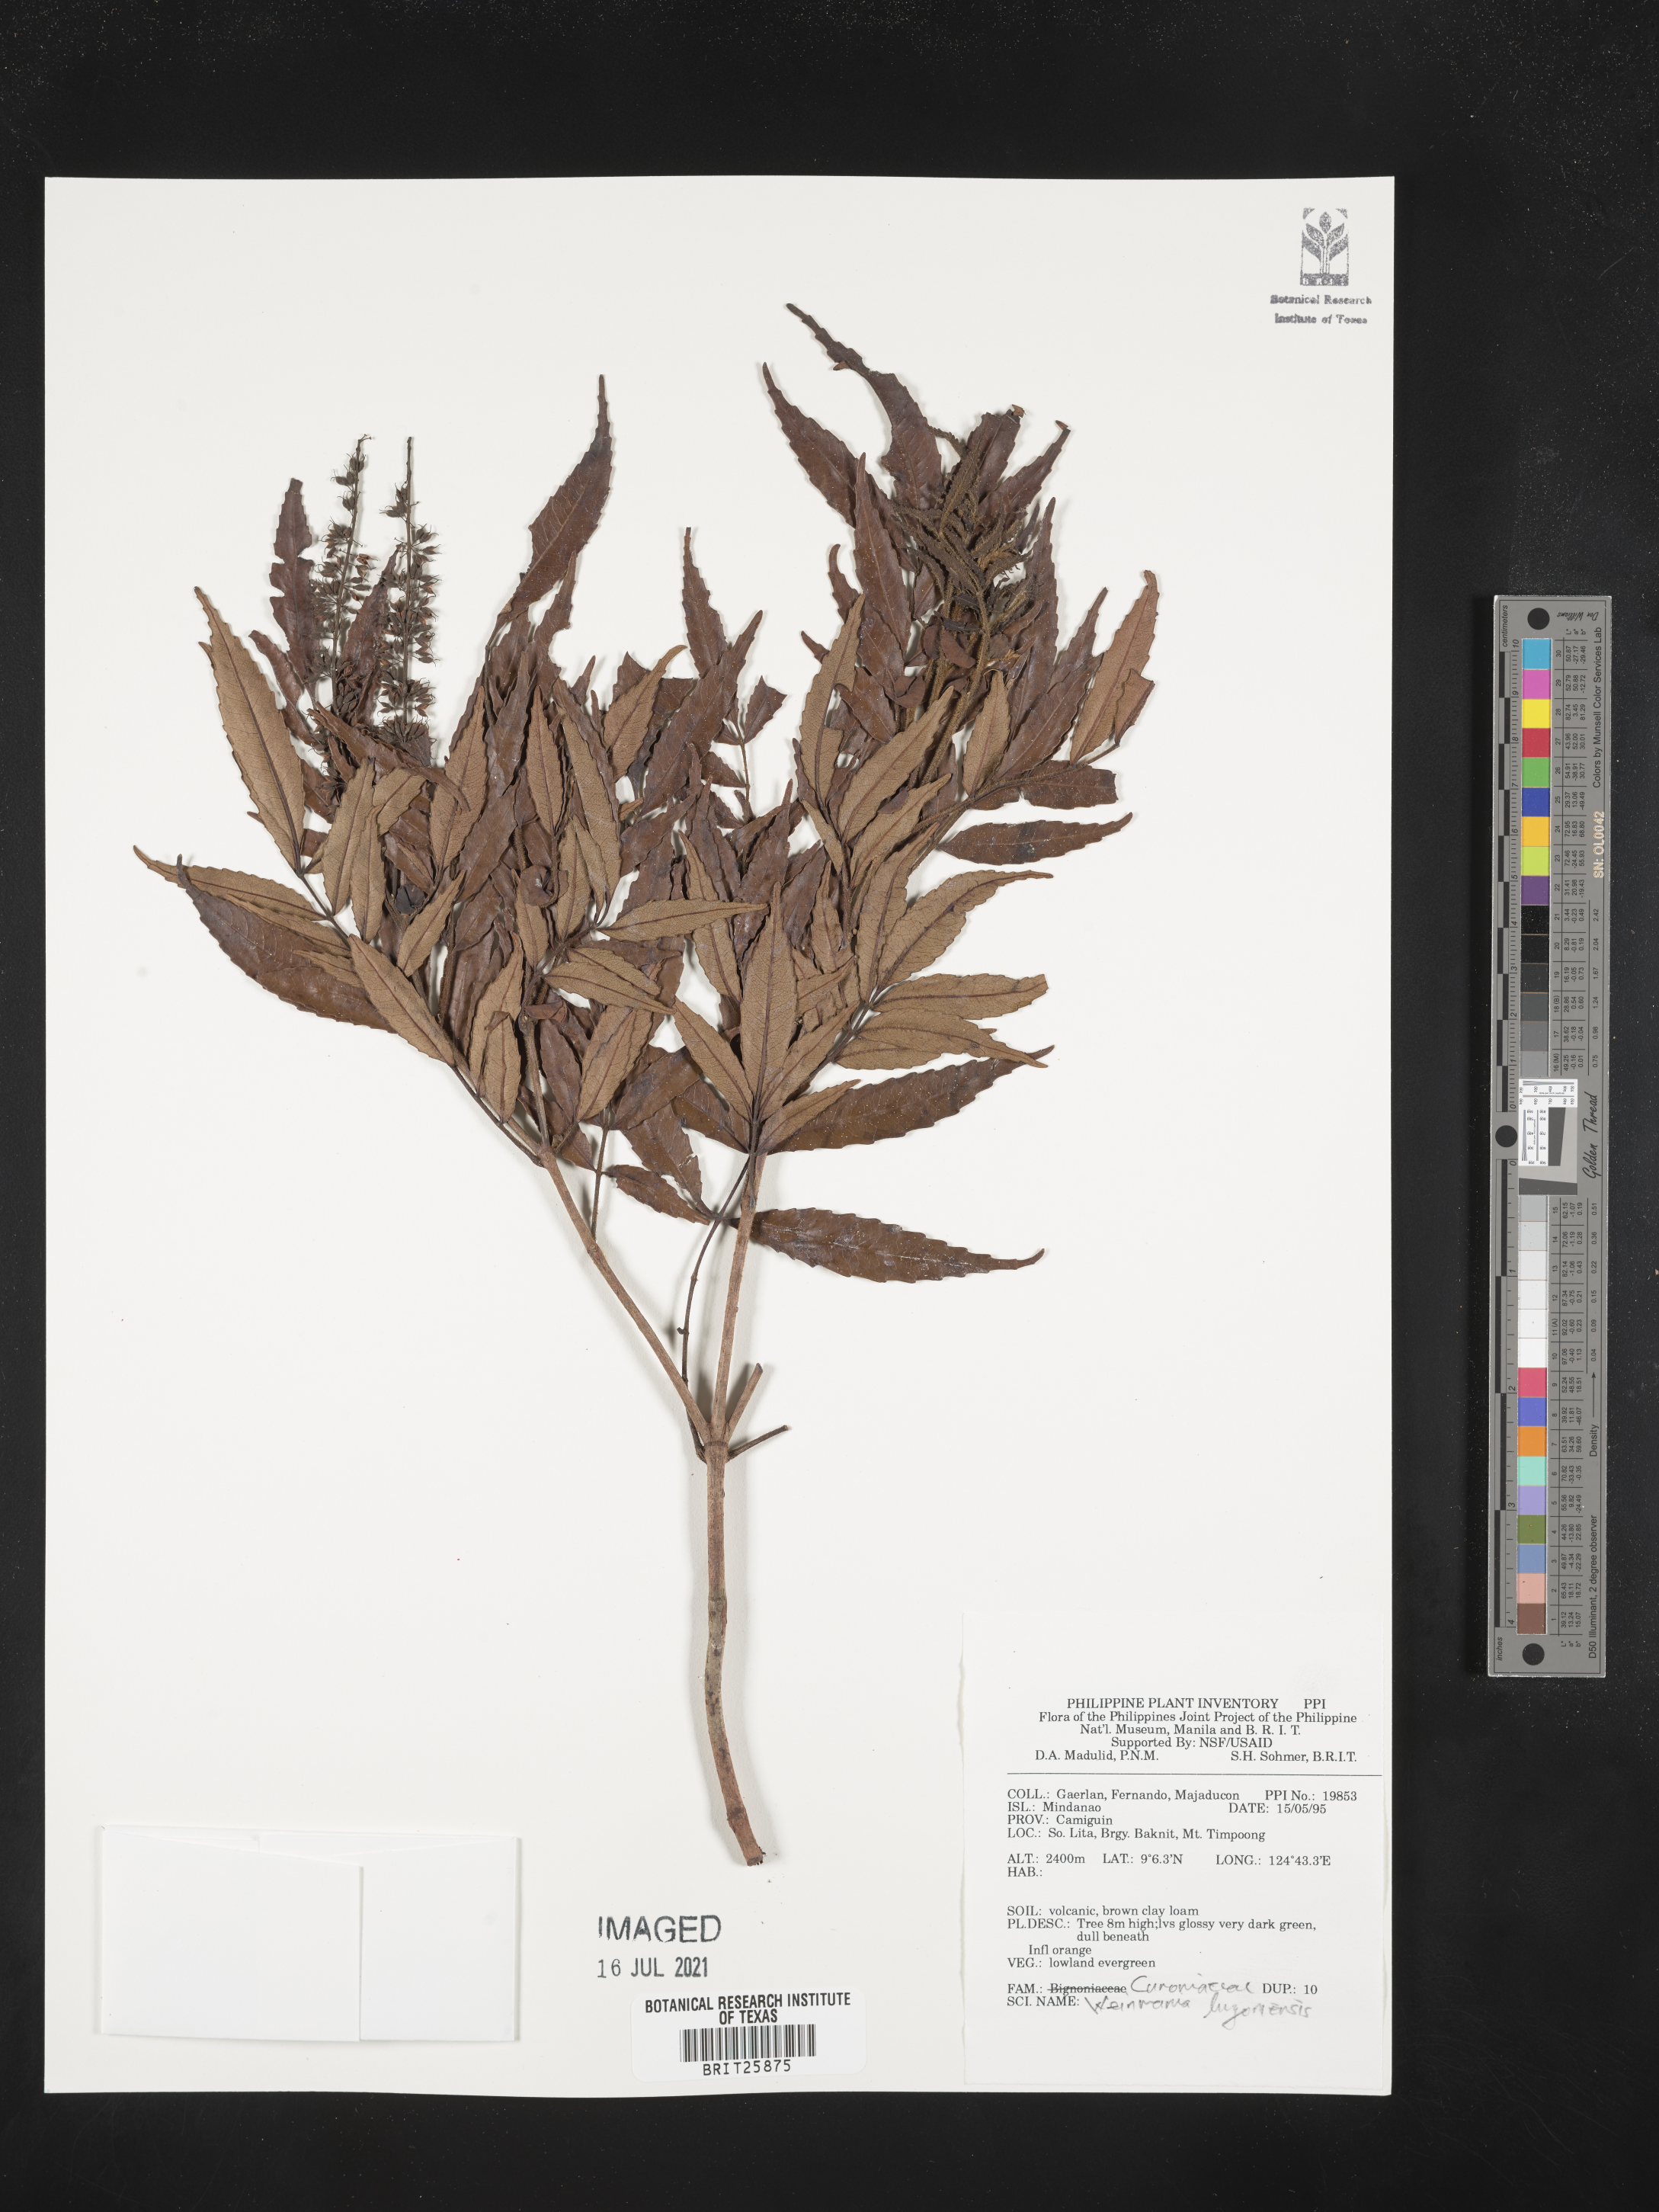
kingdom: Plantae
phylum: Tracheophyta
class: Magnoliopsida
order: Oxalidales
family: Cunoniaceae
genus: Pterophylla
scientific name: Pterophylla luzoniensis
